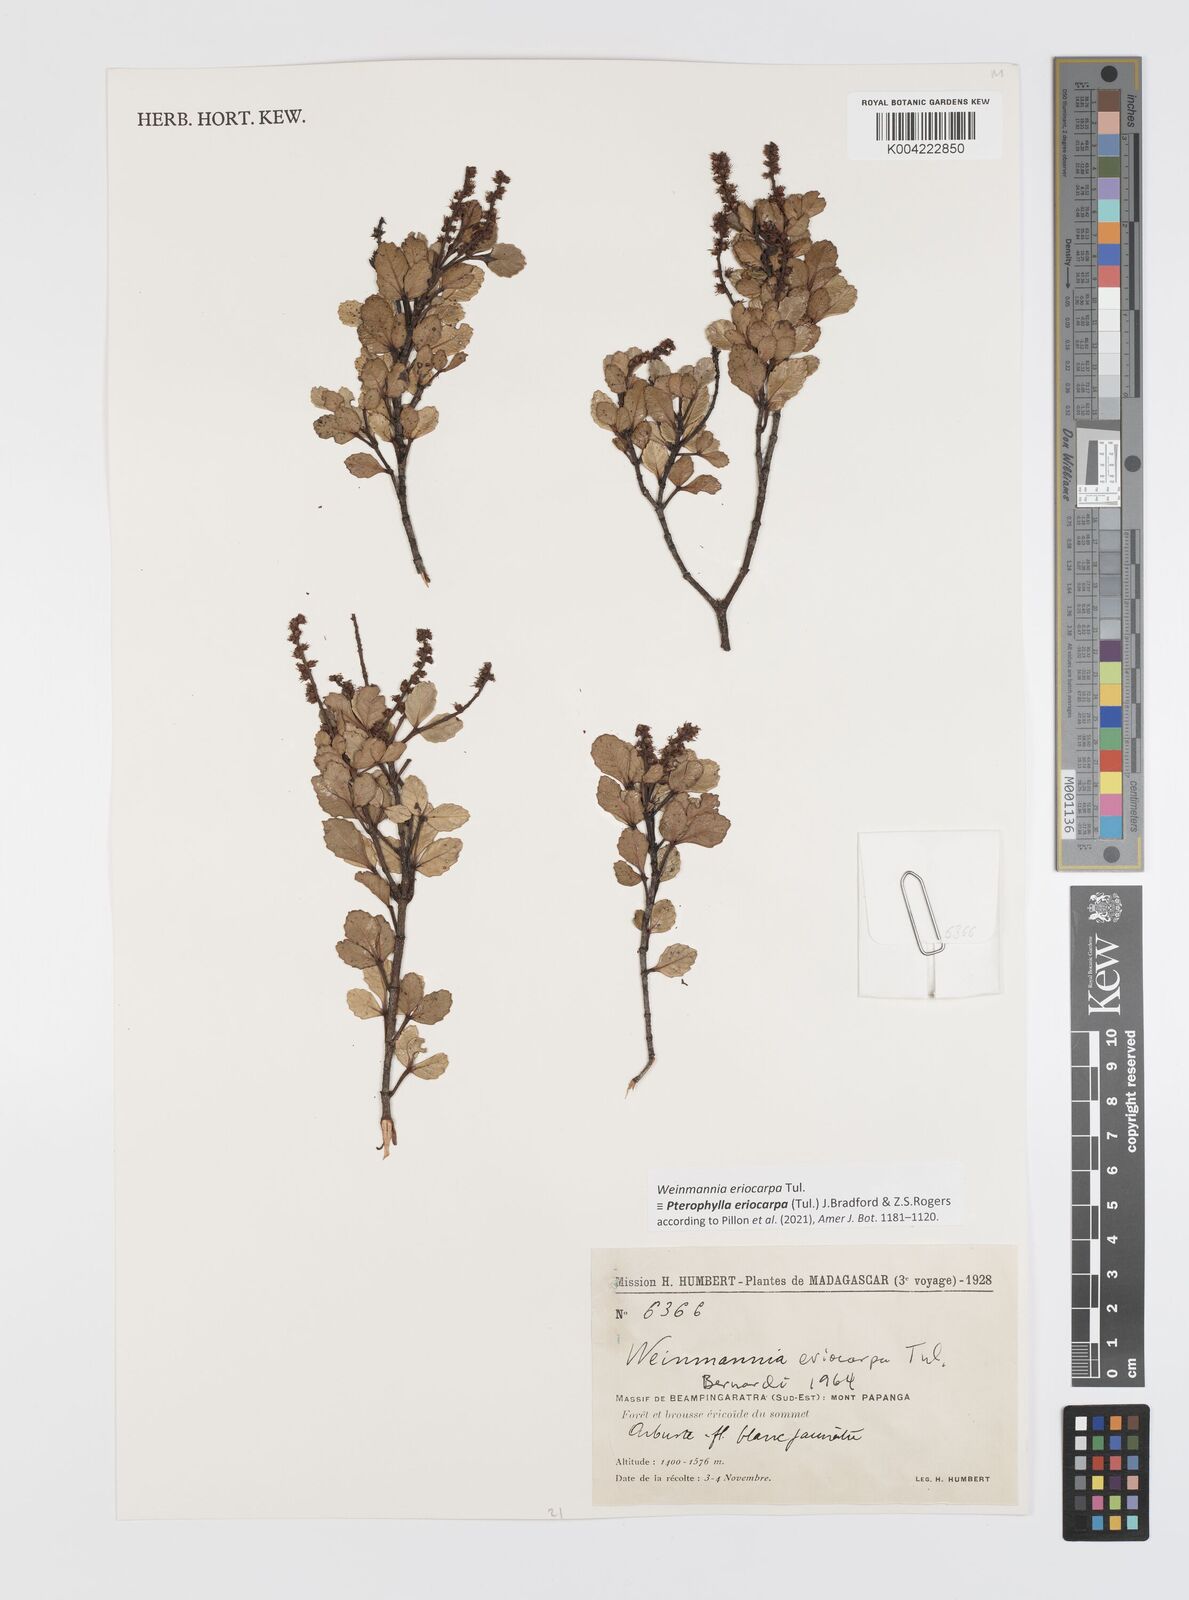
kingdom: Plantae
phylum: Tracheophyta
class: Magnoliopsida
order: Oxalidales
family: Cunoniaceae
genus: Pterophylla
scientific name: Pterophylla eriocarpa
